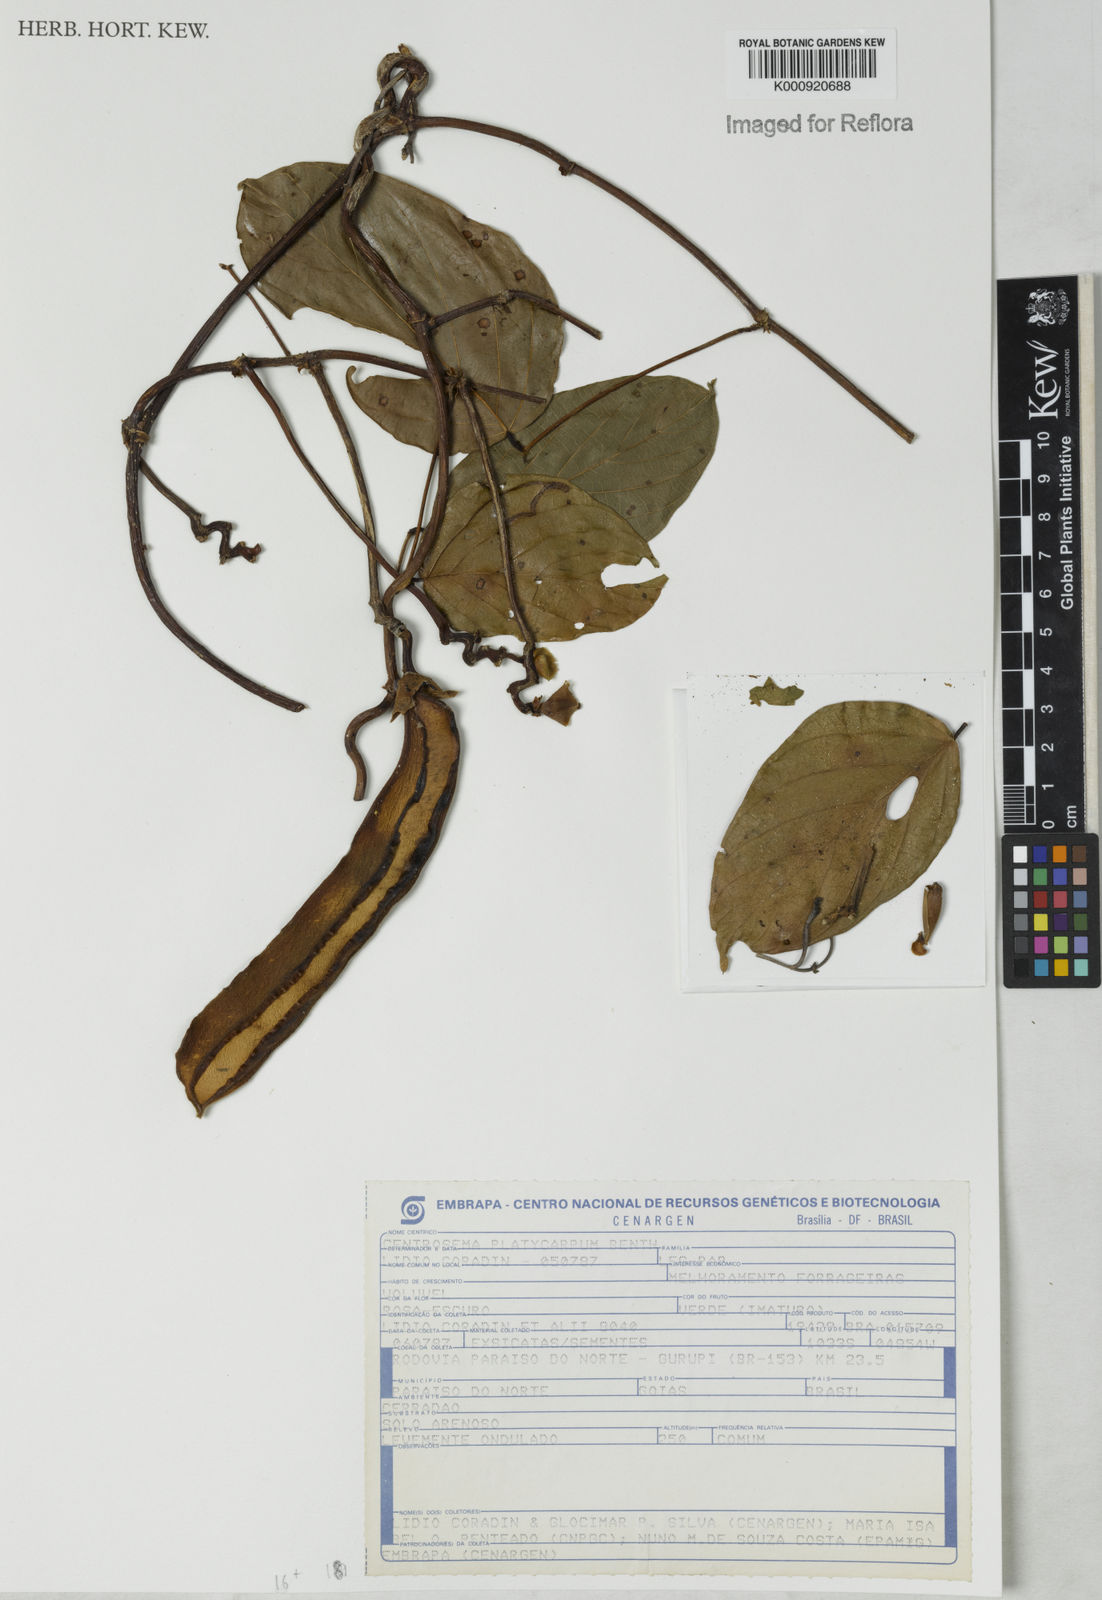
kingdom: Plantae
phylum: Tracheophyta
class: Magnoliopsida
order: Fabales
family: Fabaceae
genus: Centrosema
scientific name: Centrosema platycarpum
